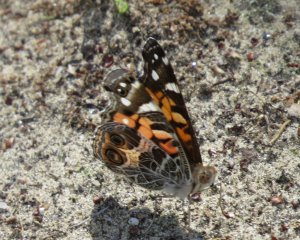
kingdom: Animalia
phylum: Arthropoda
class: Insecta
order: Lepidoptera
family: Nymphalidae
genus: Vanessa
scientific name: Vanessa virginiensis
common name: American Lady
